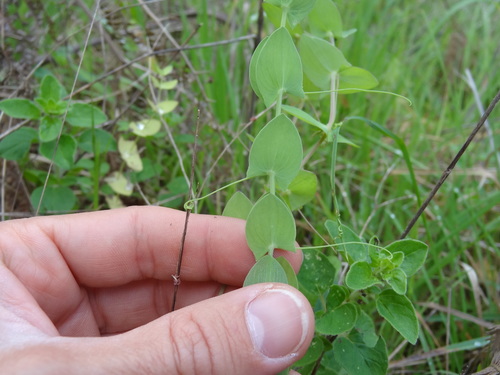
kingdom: Plantae
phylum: Tracheophyta
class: Magnoliopsida
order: Fabales
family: Fabaceae
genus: Lathyrus
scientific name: Lathyrus ochrus
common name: Winged vetchling
